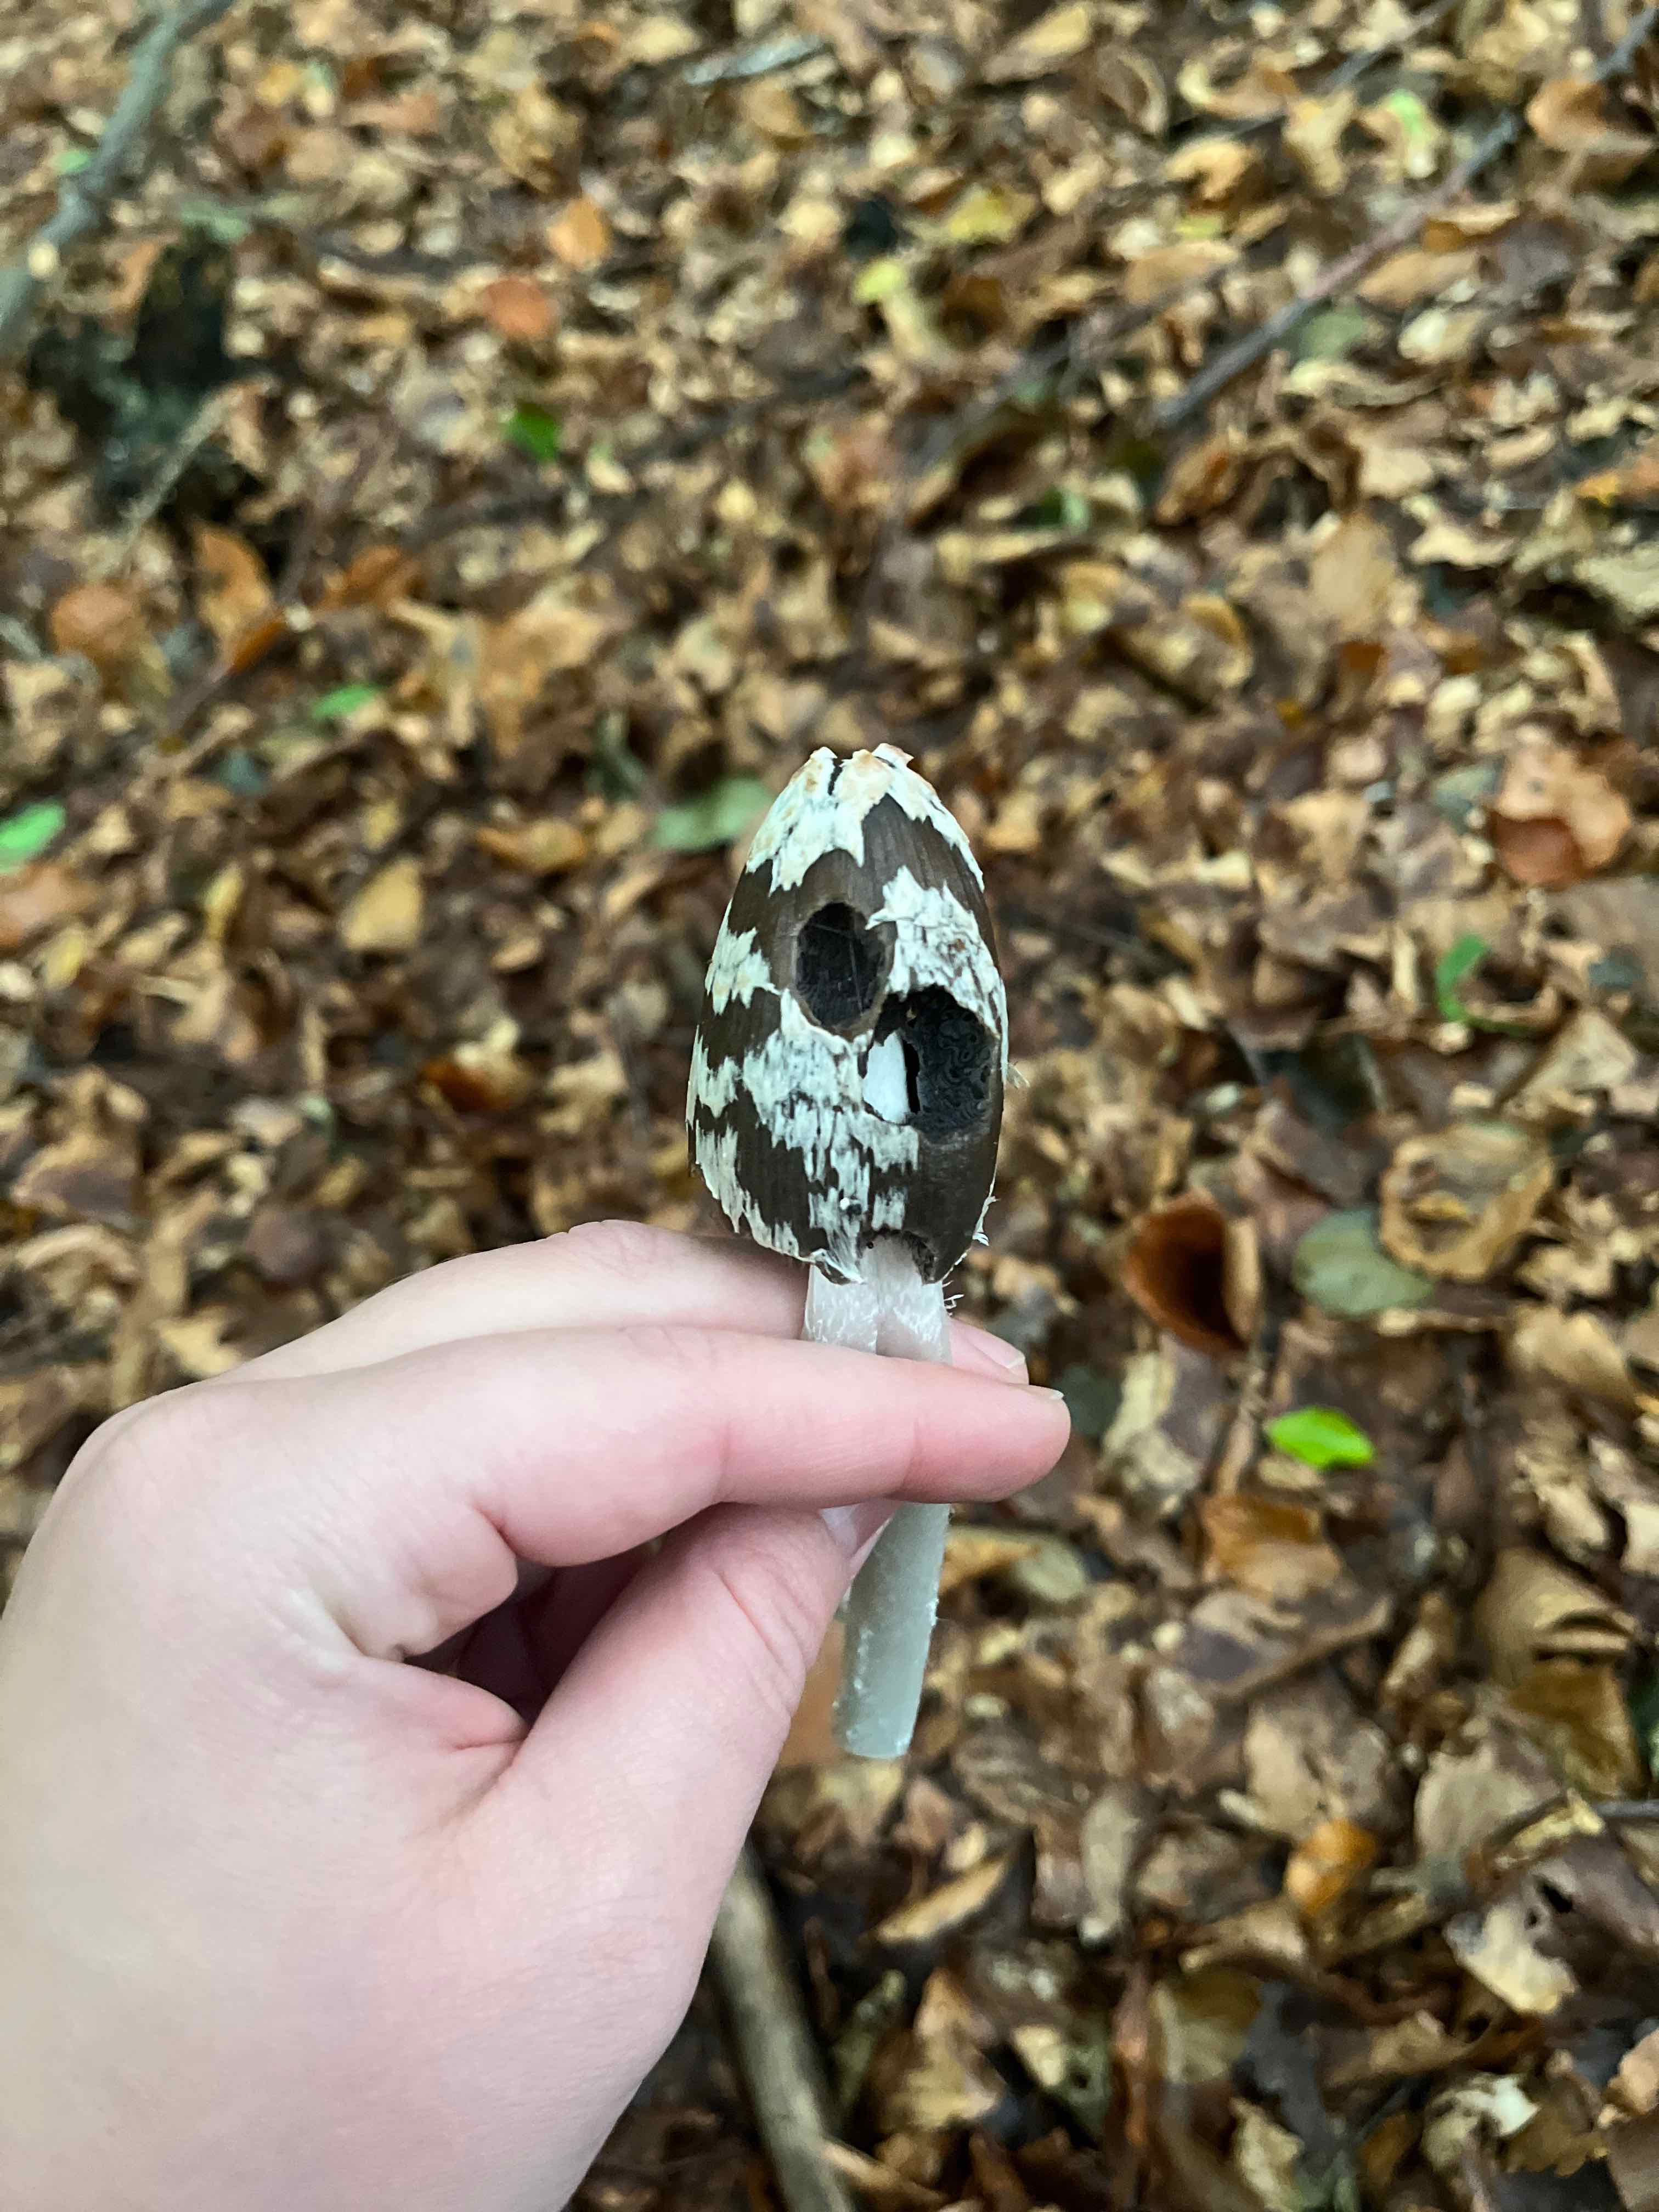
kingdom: Fungi
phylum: Basidiomycota
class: Agaricomycetes
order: Agaricales
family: Psathyrellaceae
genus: Coprinopsis
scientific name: Coprinopsis picacea
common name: skade-blækhat
